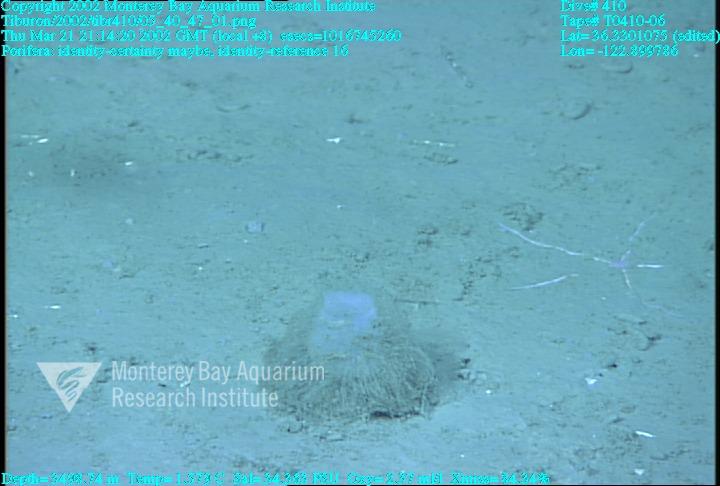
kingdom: Animalia
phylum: Porifera
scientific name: Porifera
